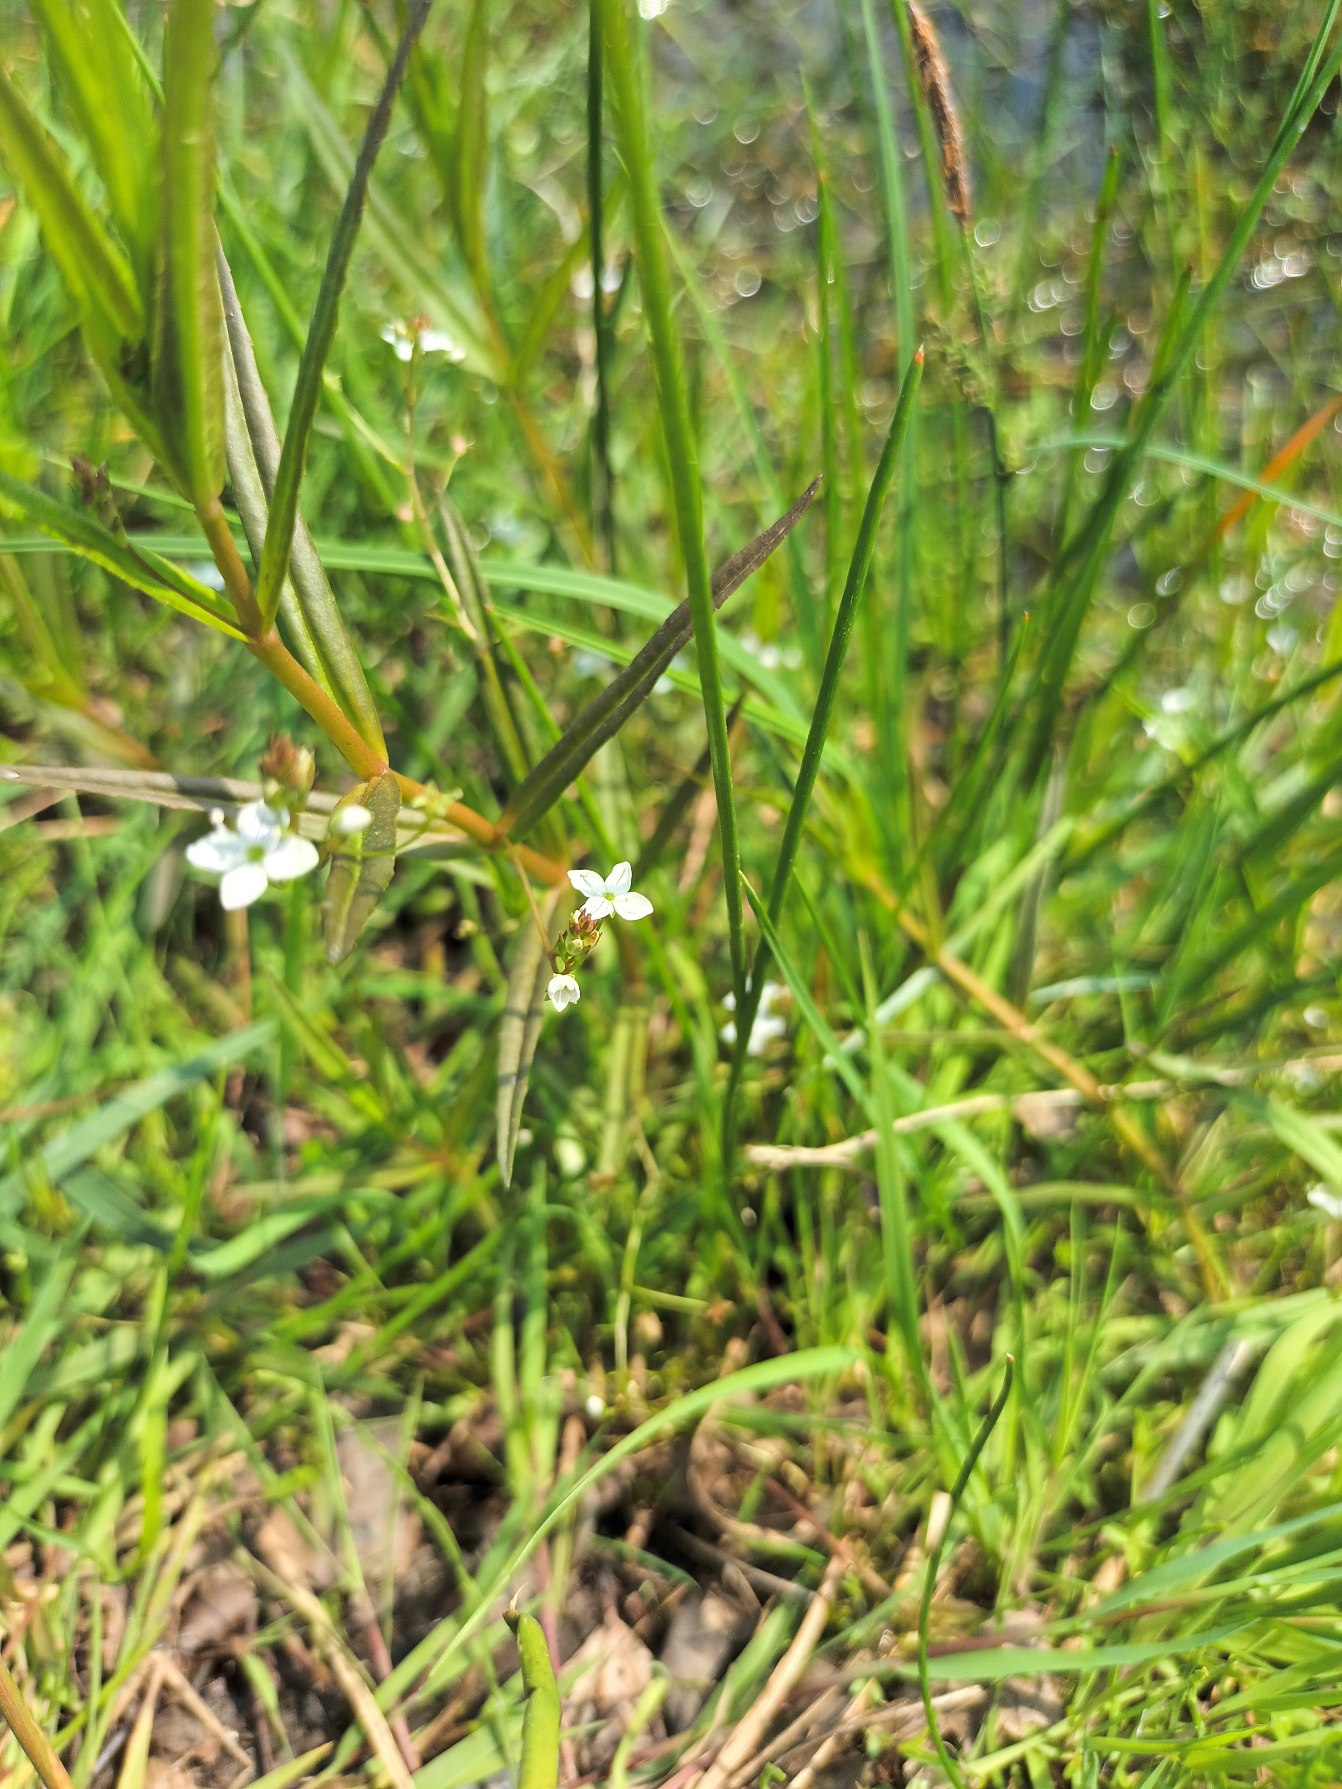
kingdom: Plantae
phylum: Tracheophyta
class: Magnoliopsida
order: Lamiales
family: Plantaginaceae
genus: Veronica
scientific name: Veronica scutellata
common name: Smalbladet ærenpris
